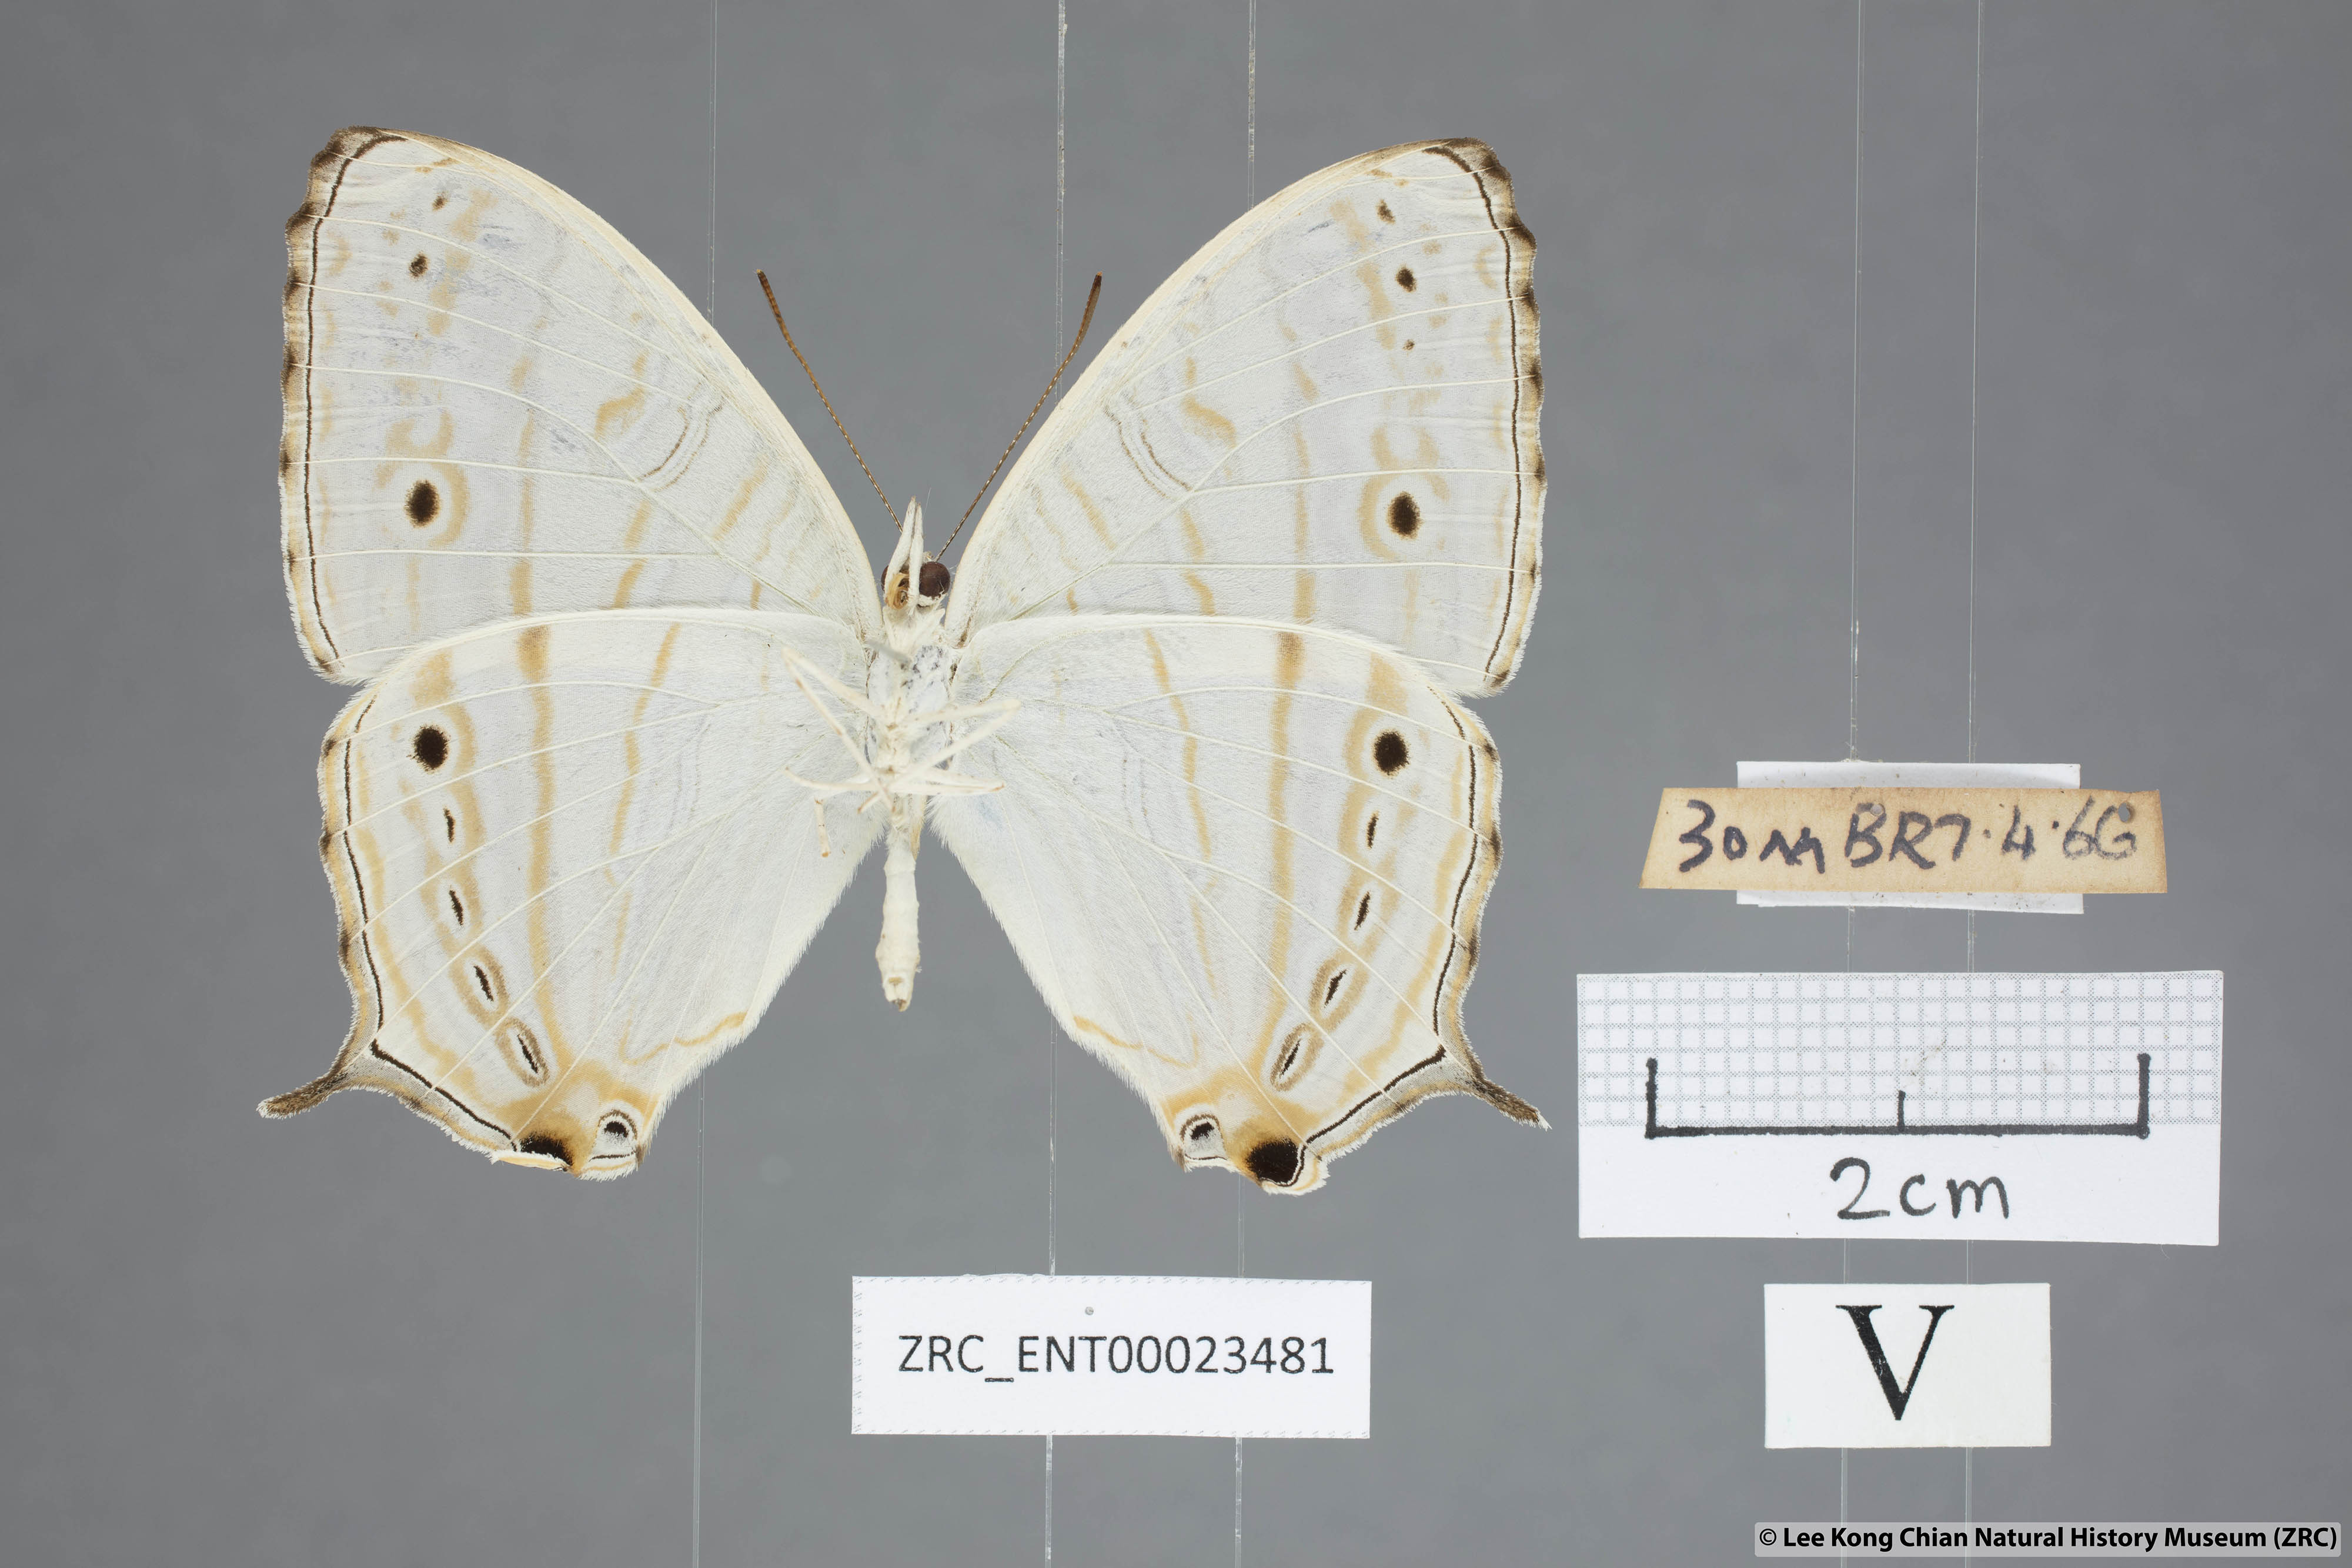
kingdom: Animalia
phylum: Arthropoda
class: Insecta
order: Lepidoptera
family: Nymphalidae
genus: Cyrestis
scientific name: Cyrestis cocles
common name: Marbled map
